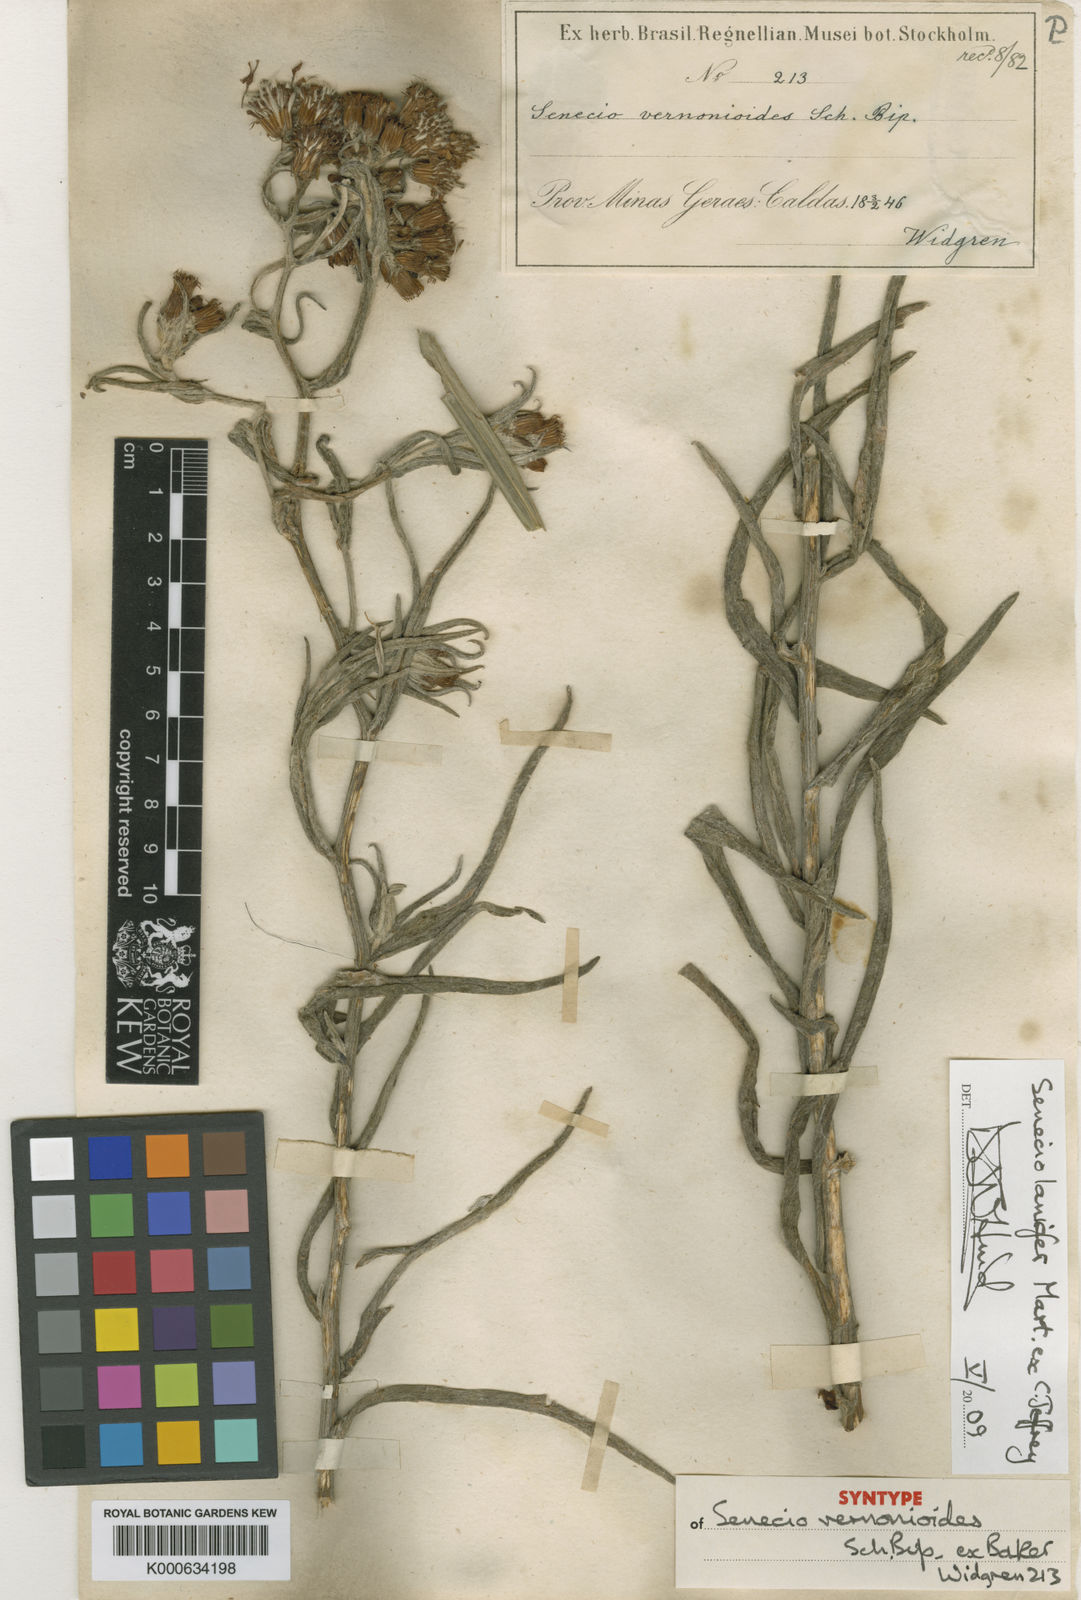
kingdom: Plantae
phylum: Tracheophyta
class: Magnoliopsida
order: Asterales
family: Asteraceae
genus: Senecio
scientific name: Senecio lanifer
